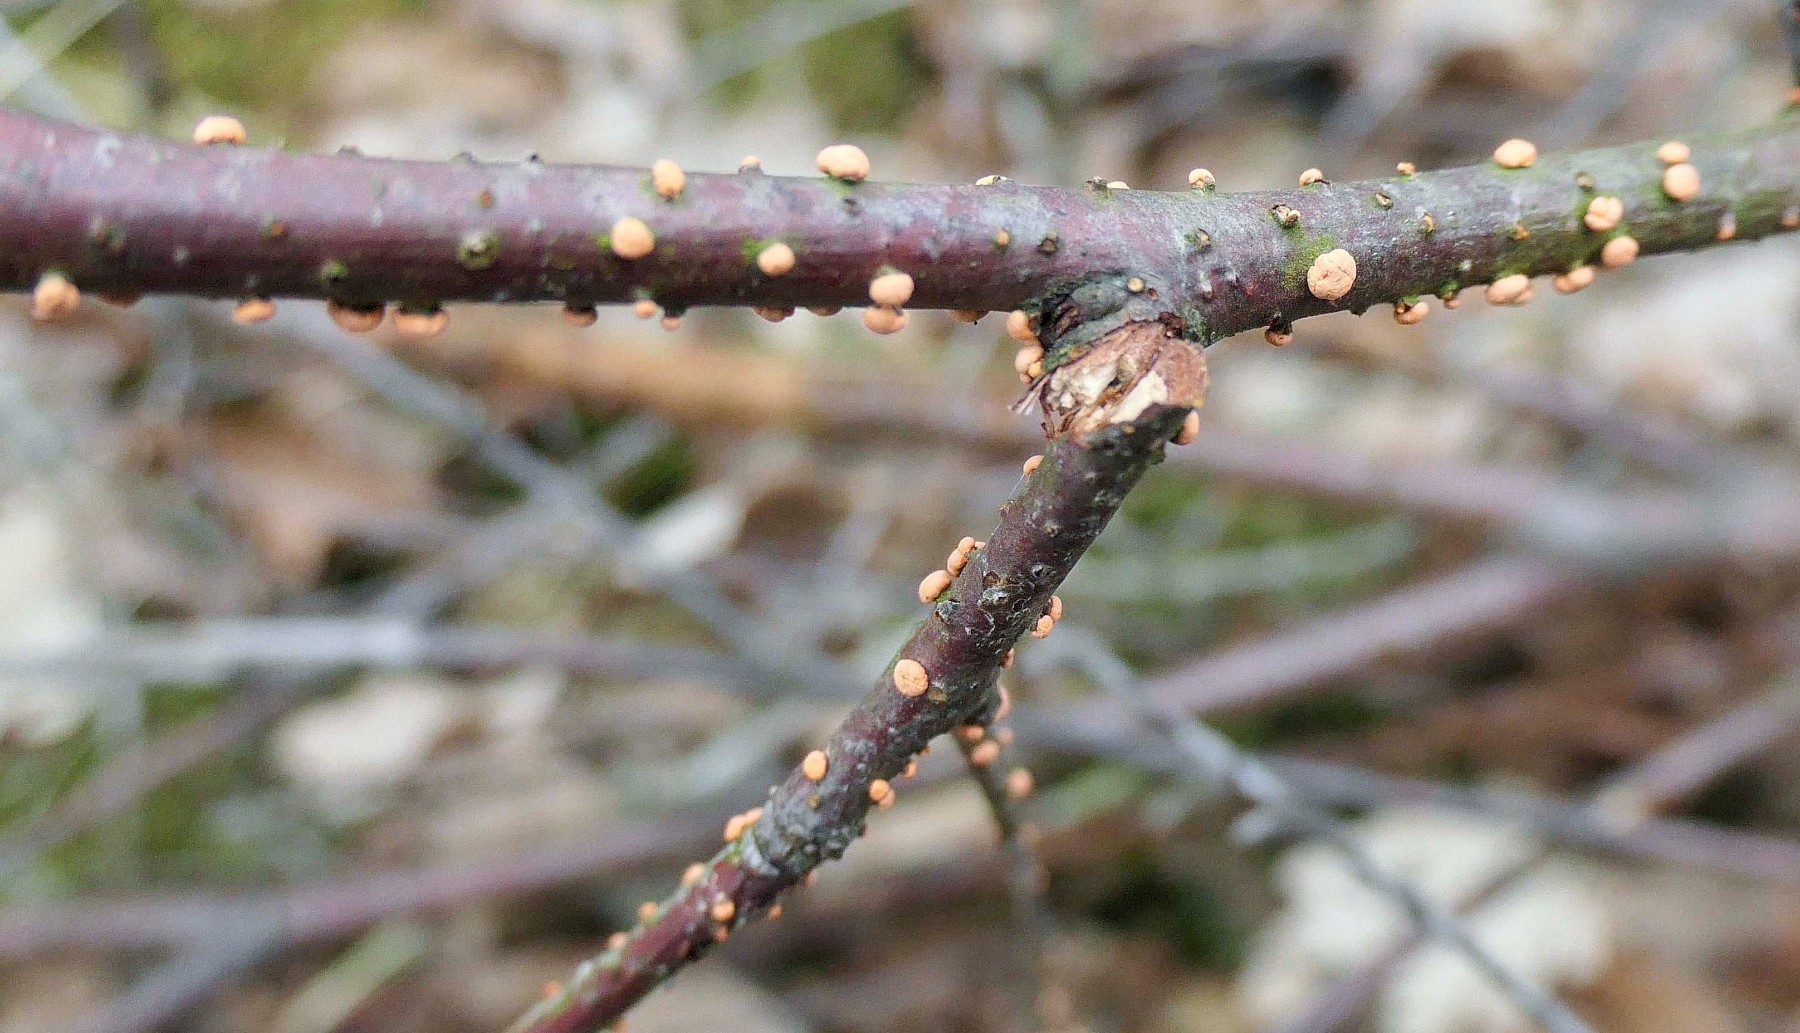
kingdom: Fungi
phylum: Ascomycota
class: Sordariomycetes
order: Hypocreales
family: Nectriaceae
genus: Nectria
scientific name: Nectria cinnabarina
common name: almindelig cinnobersvamp
